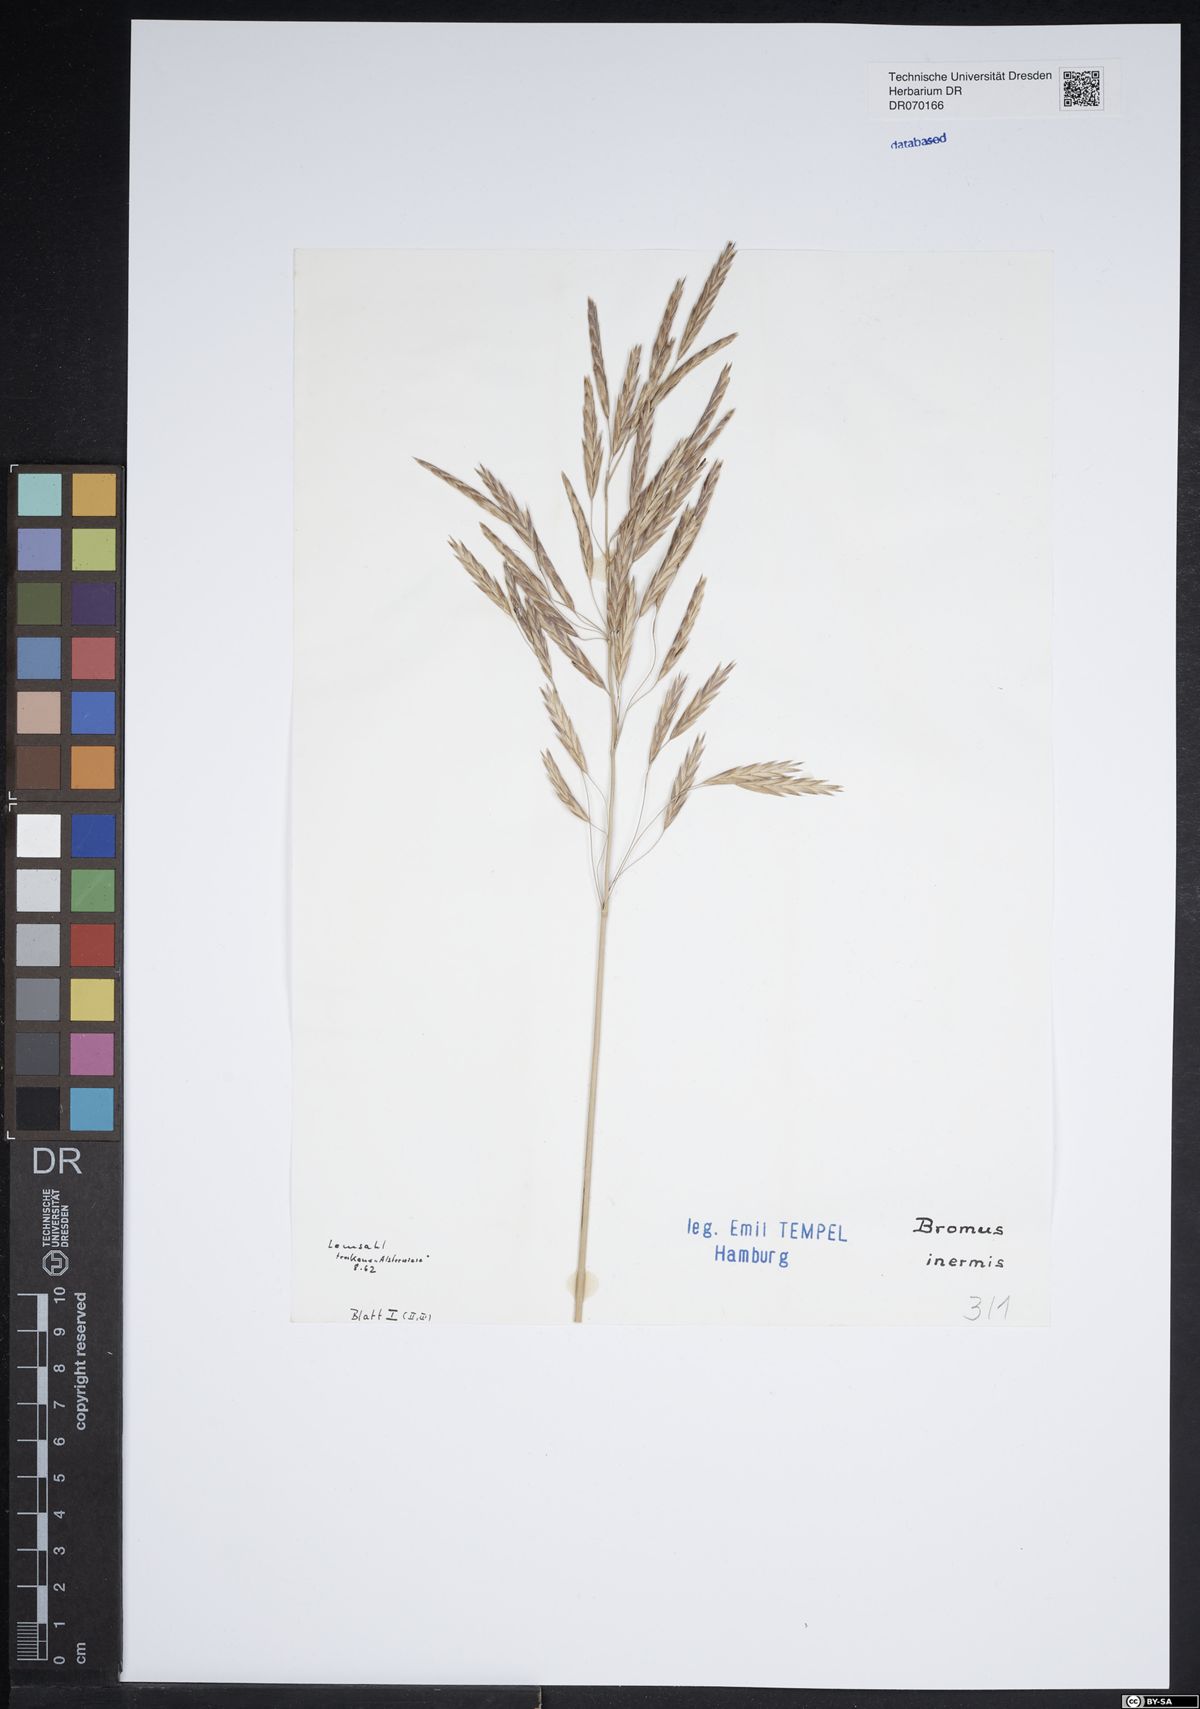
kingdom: Plantae
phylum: Tracheophyta
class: Liliopsida
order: Poales
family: Poaceae
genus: Bromus
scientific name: Bromus inermis
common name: Smooth brome
